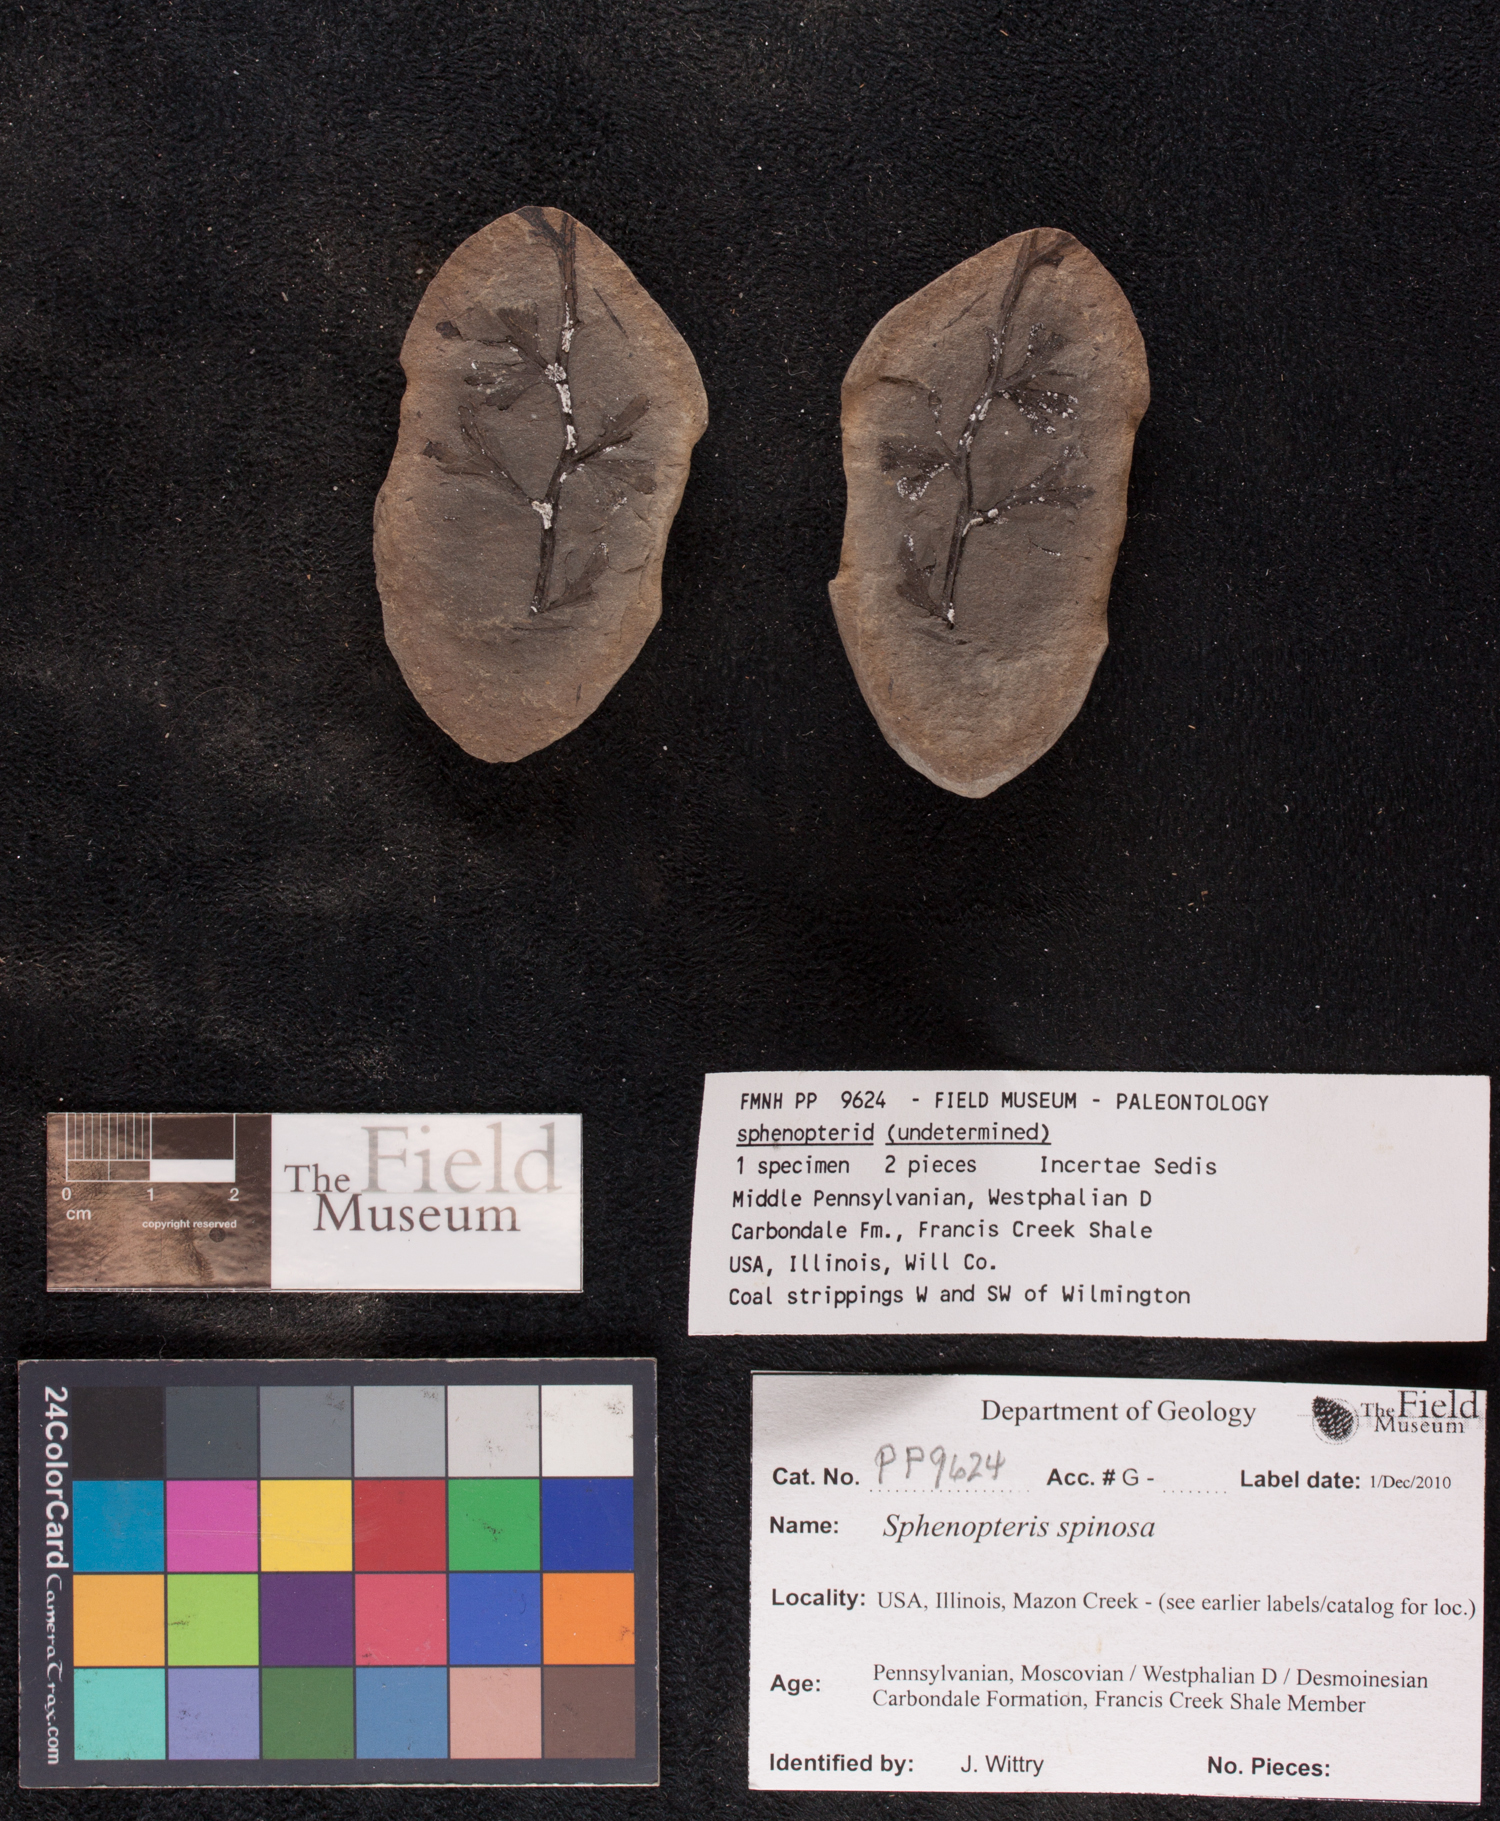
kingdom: Plantae
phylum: Tracheophyta
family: Lyginopteridaceae
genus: Sphenopteris
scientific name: Sphenopteris
